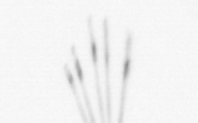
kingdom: Chromista
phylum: Ochrophyta
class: Bacillariophyceae
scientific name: Bacillariophyceae
